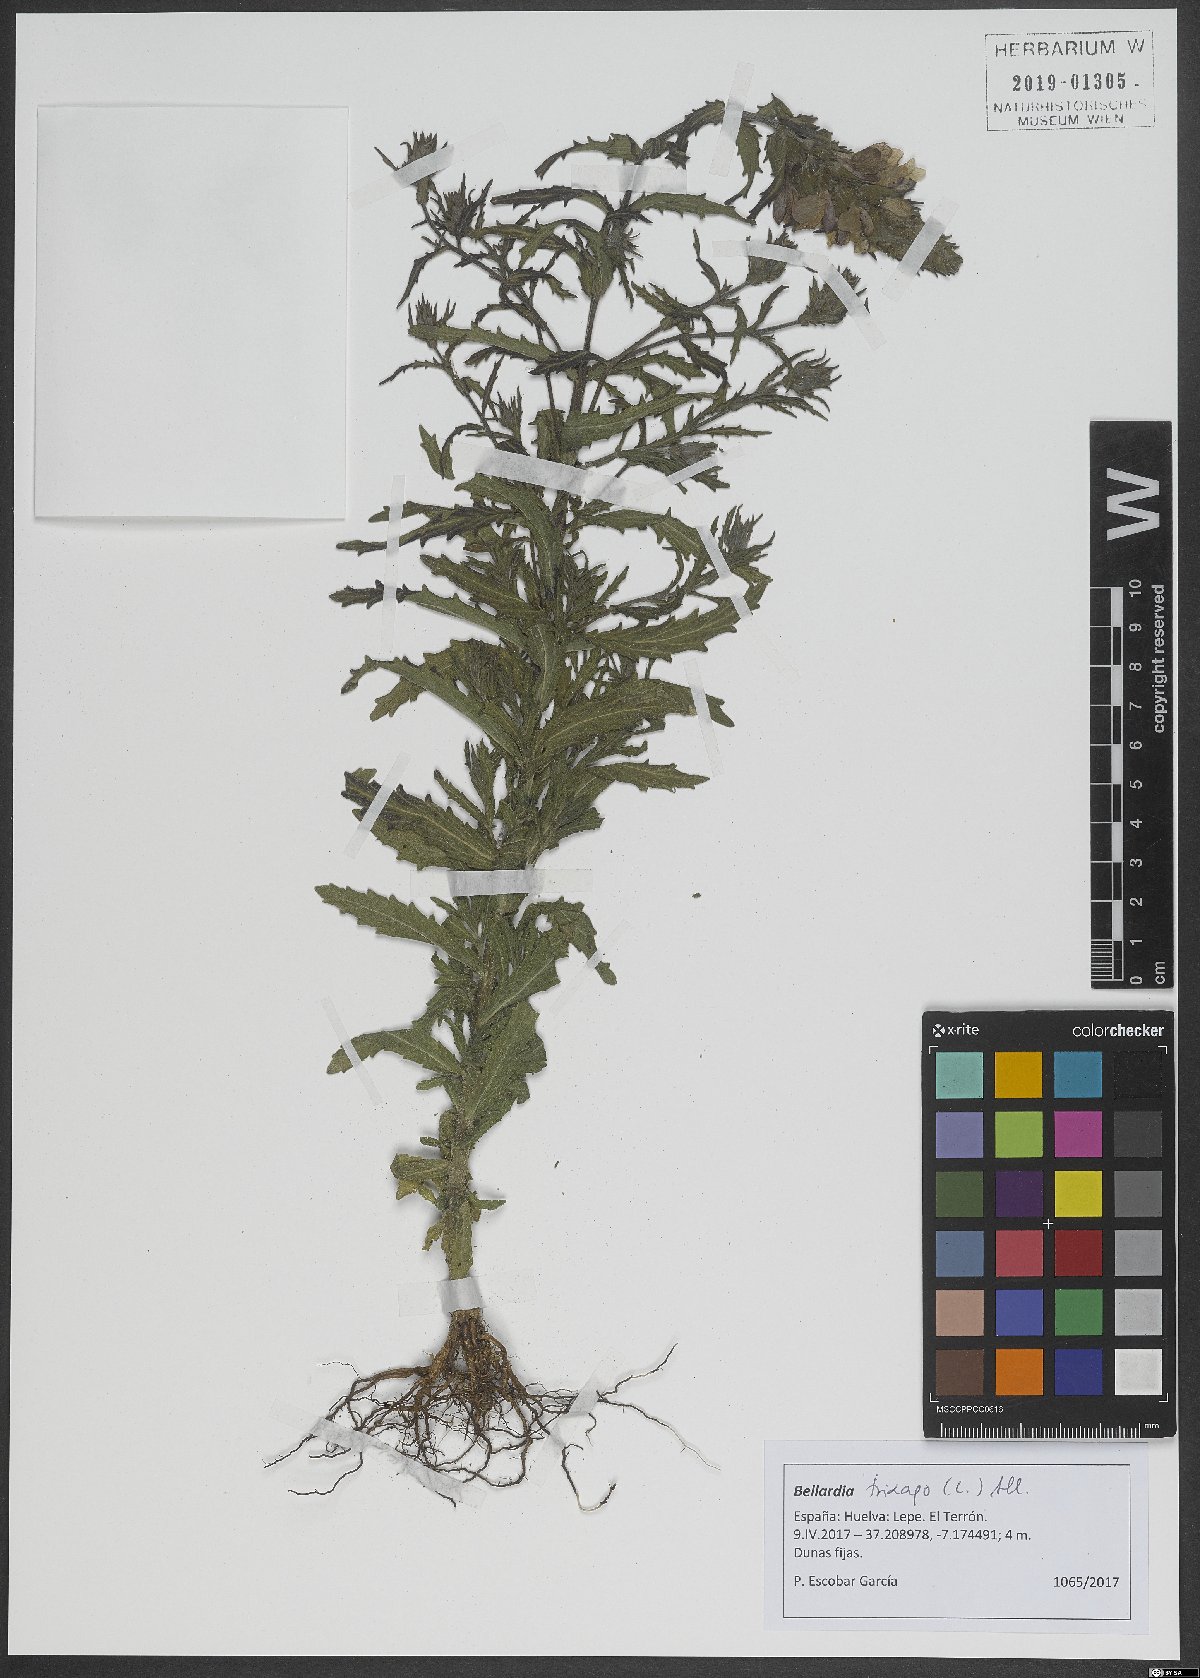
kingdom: Plantae
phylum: Tracheophyta
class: Magnoliopsida
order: Lamiales
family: Orobanchaceae
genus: Bellardia
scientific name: Bellardia trixago
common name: Mediterranean lineseed
